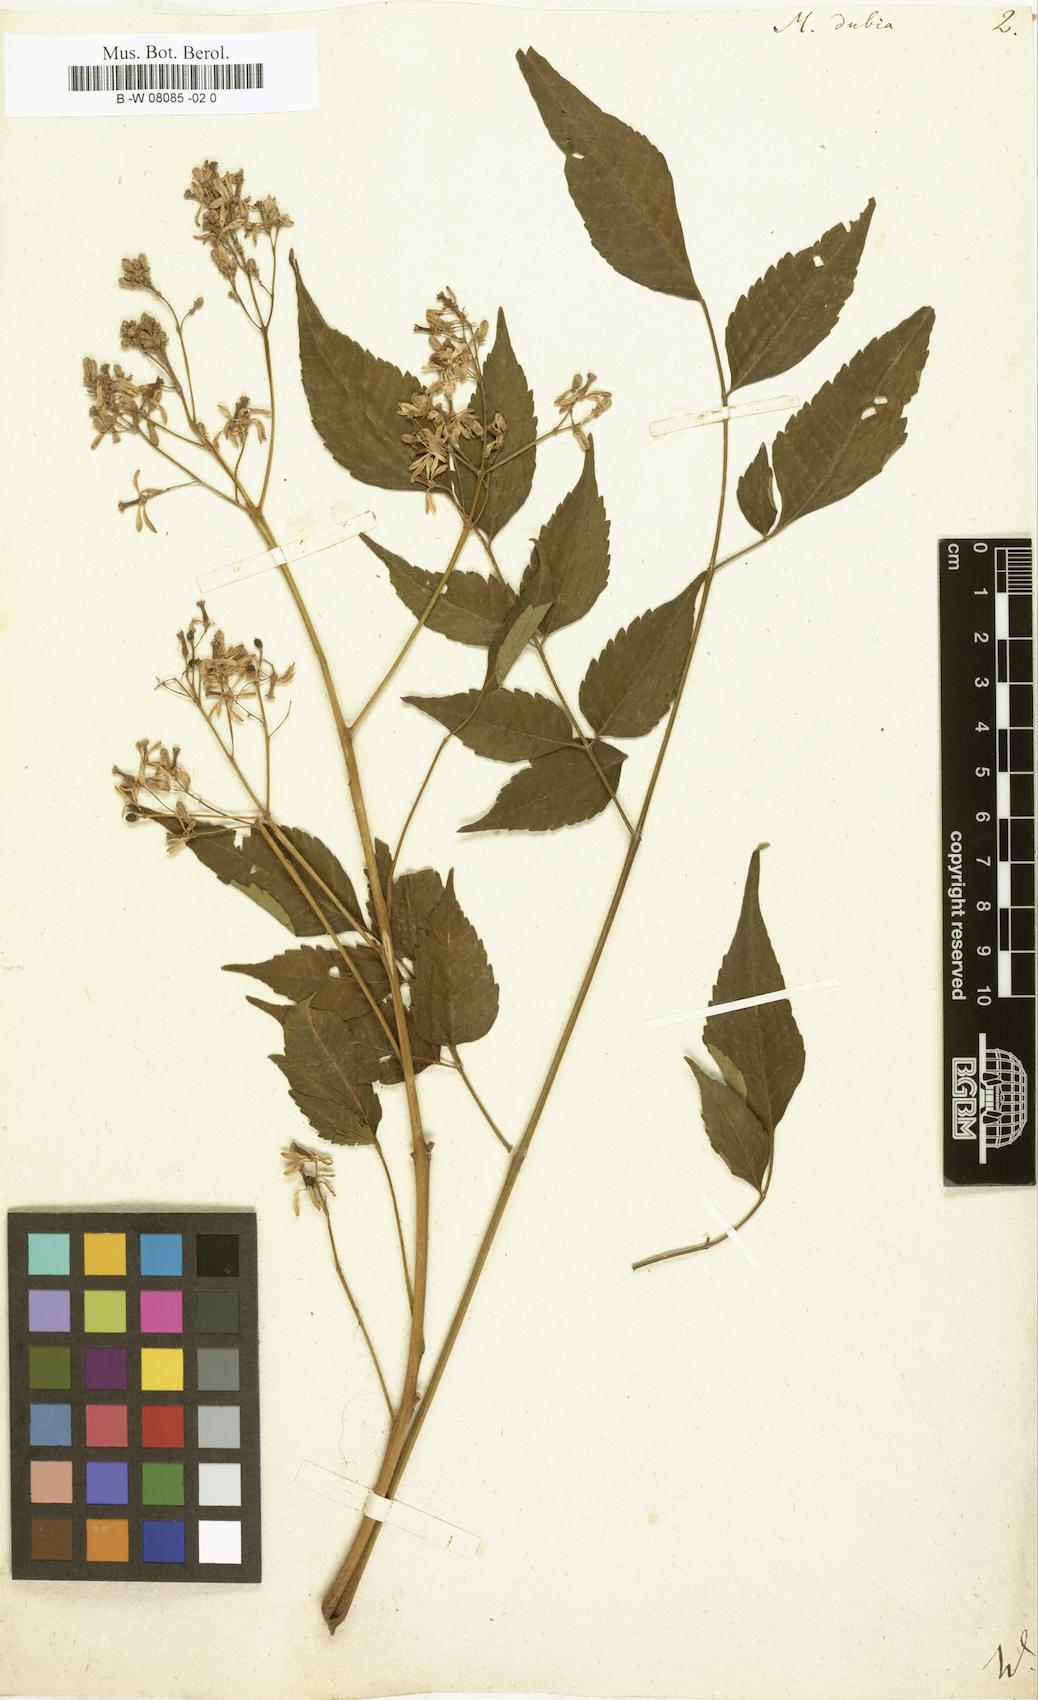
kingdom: Plantae
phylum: Tracheophyta
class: Magnoliopsida
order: Sapindales
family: Meliaceae
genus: Melia
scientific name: Melia dubia
